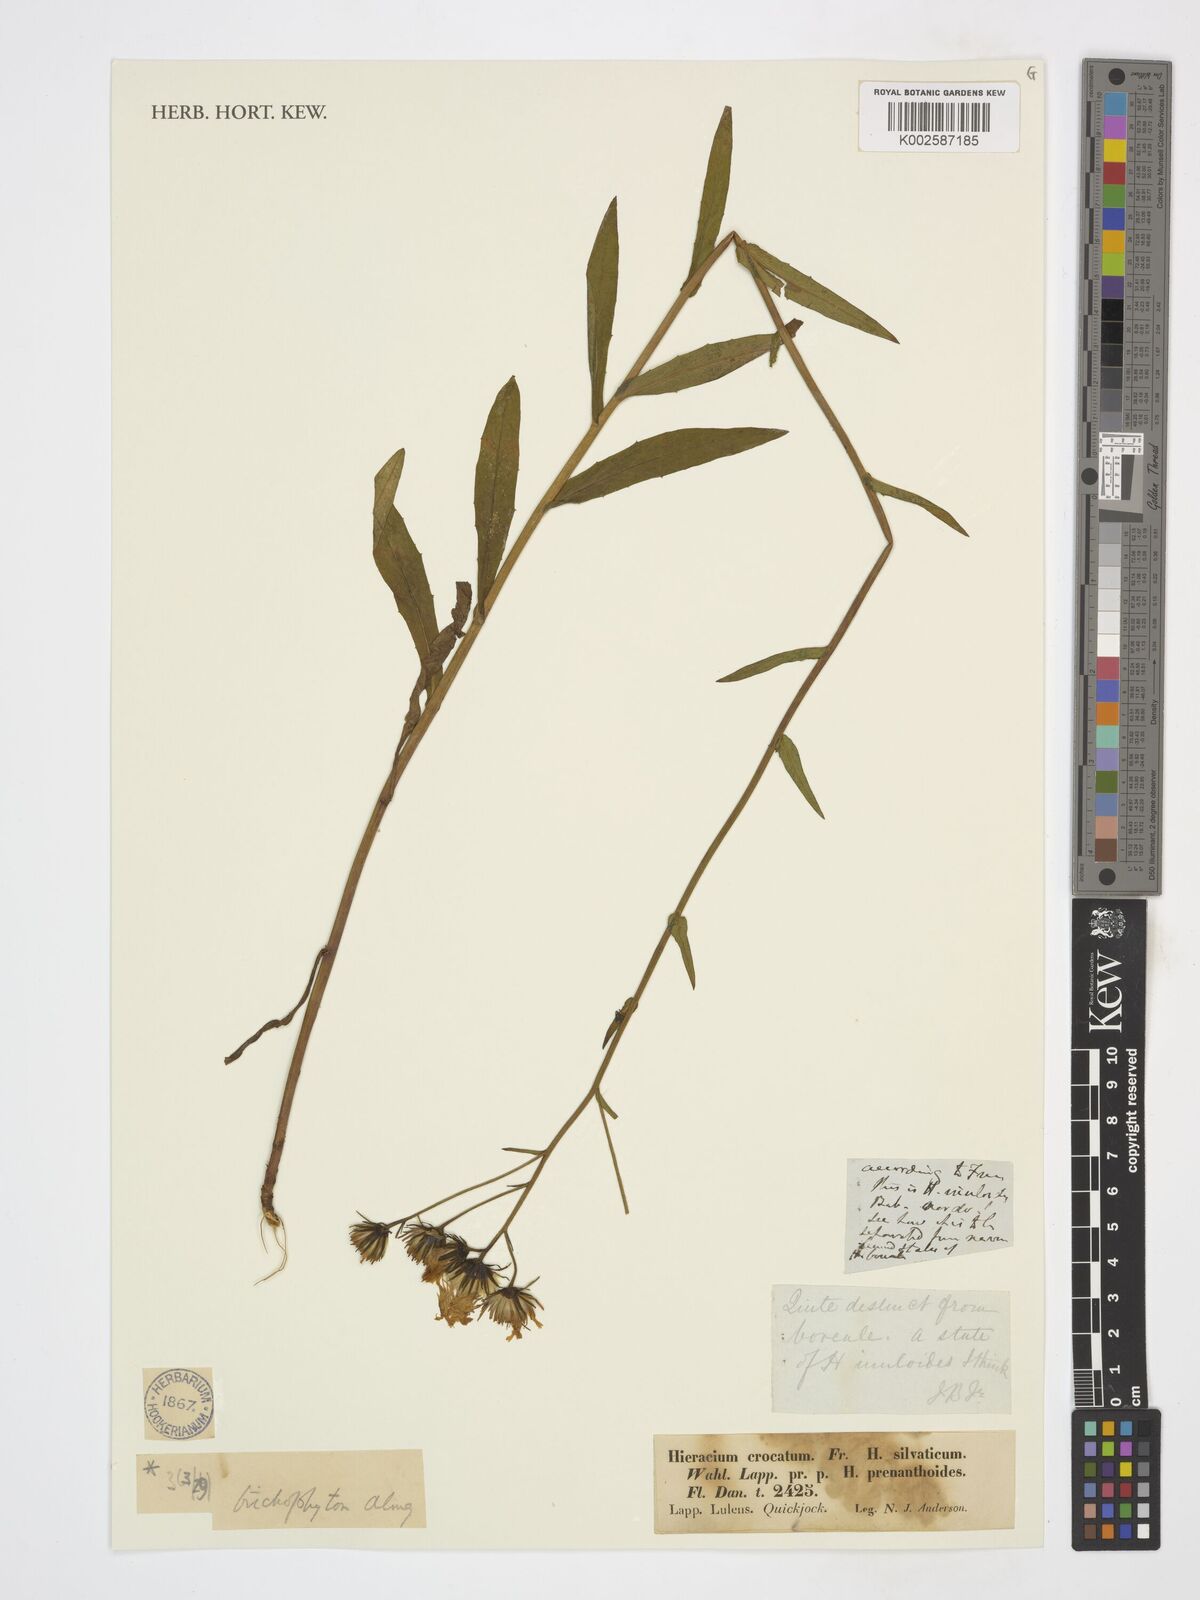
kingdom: Plantae
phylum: Tracheophyta
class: Magnoliopsida
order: Asterales
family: Asteraceae
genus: Hieracium
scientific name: Hieracium laevigatum
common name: Smooth hawkweed
